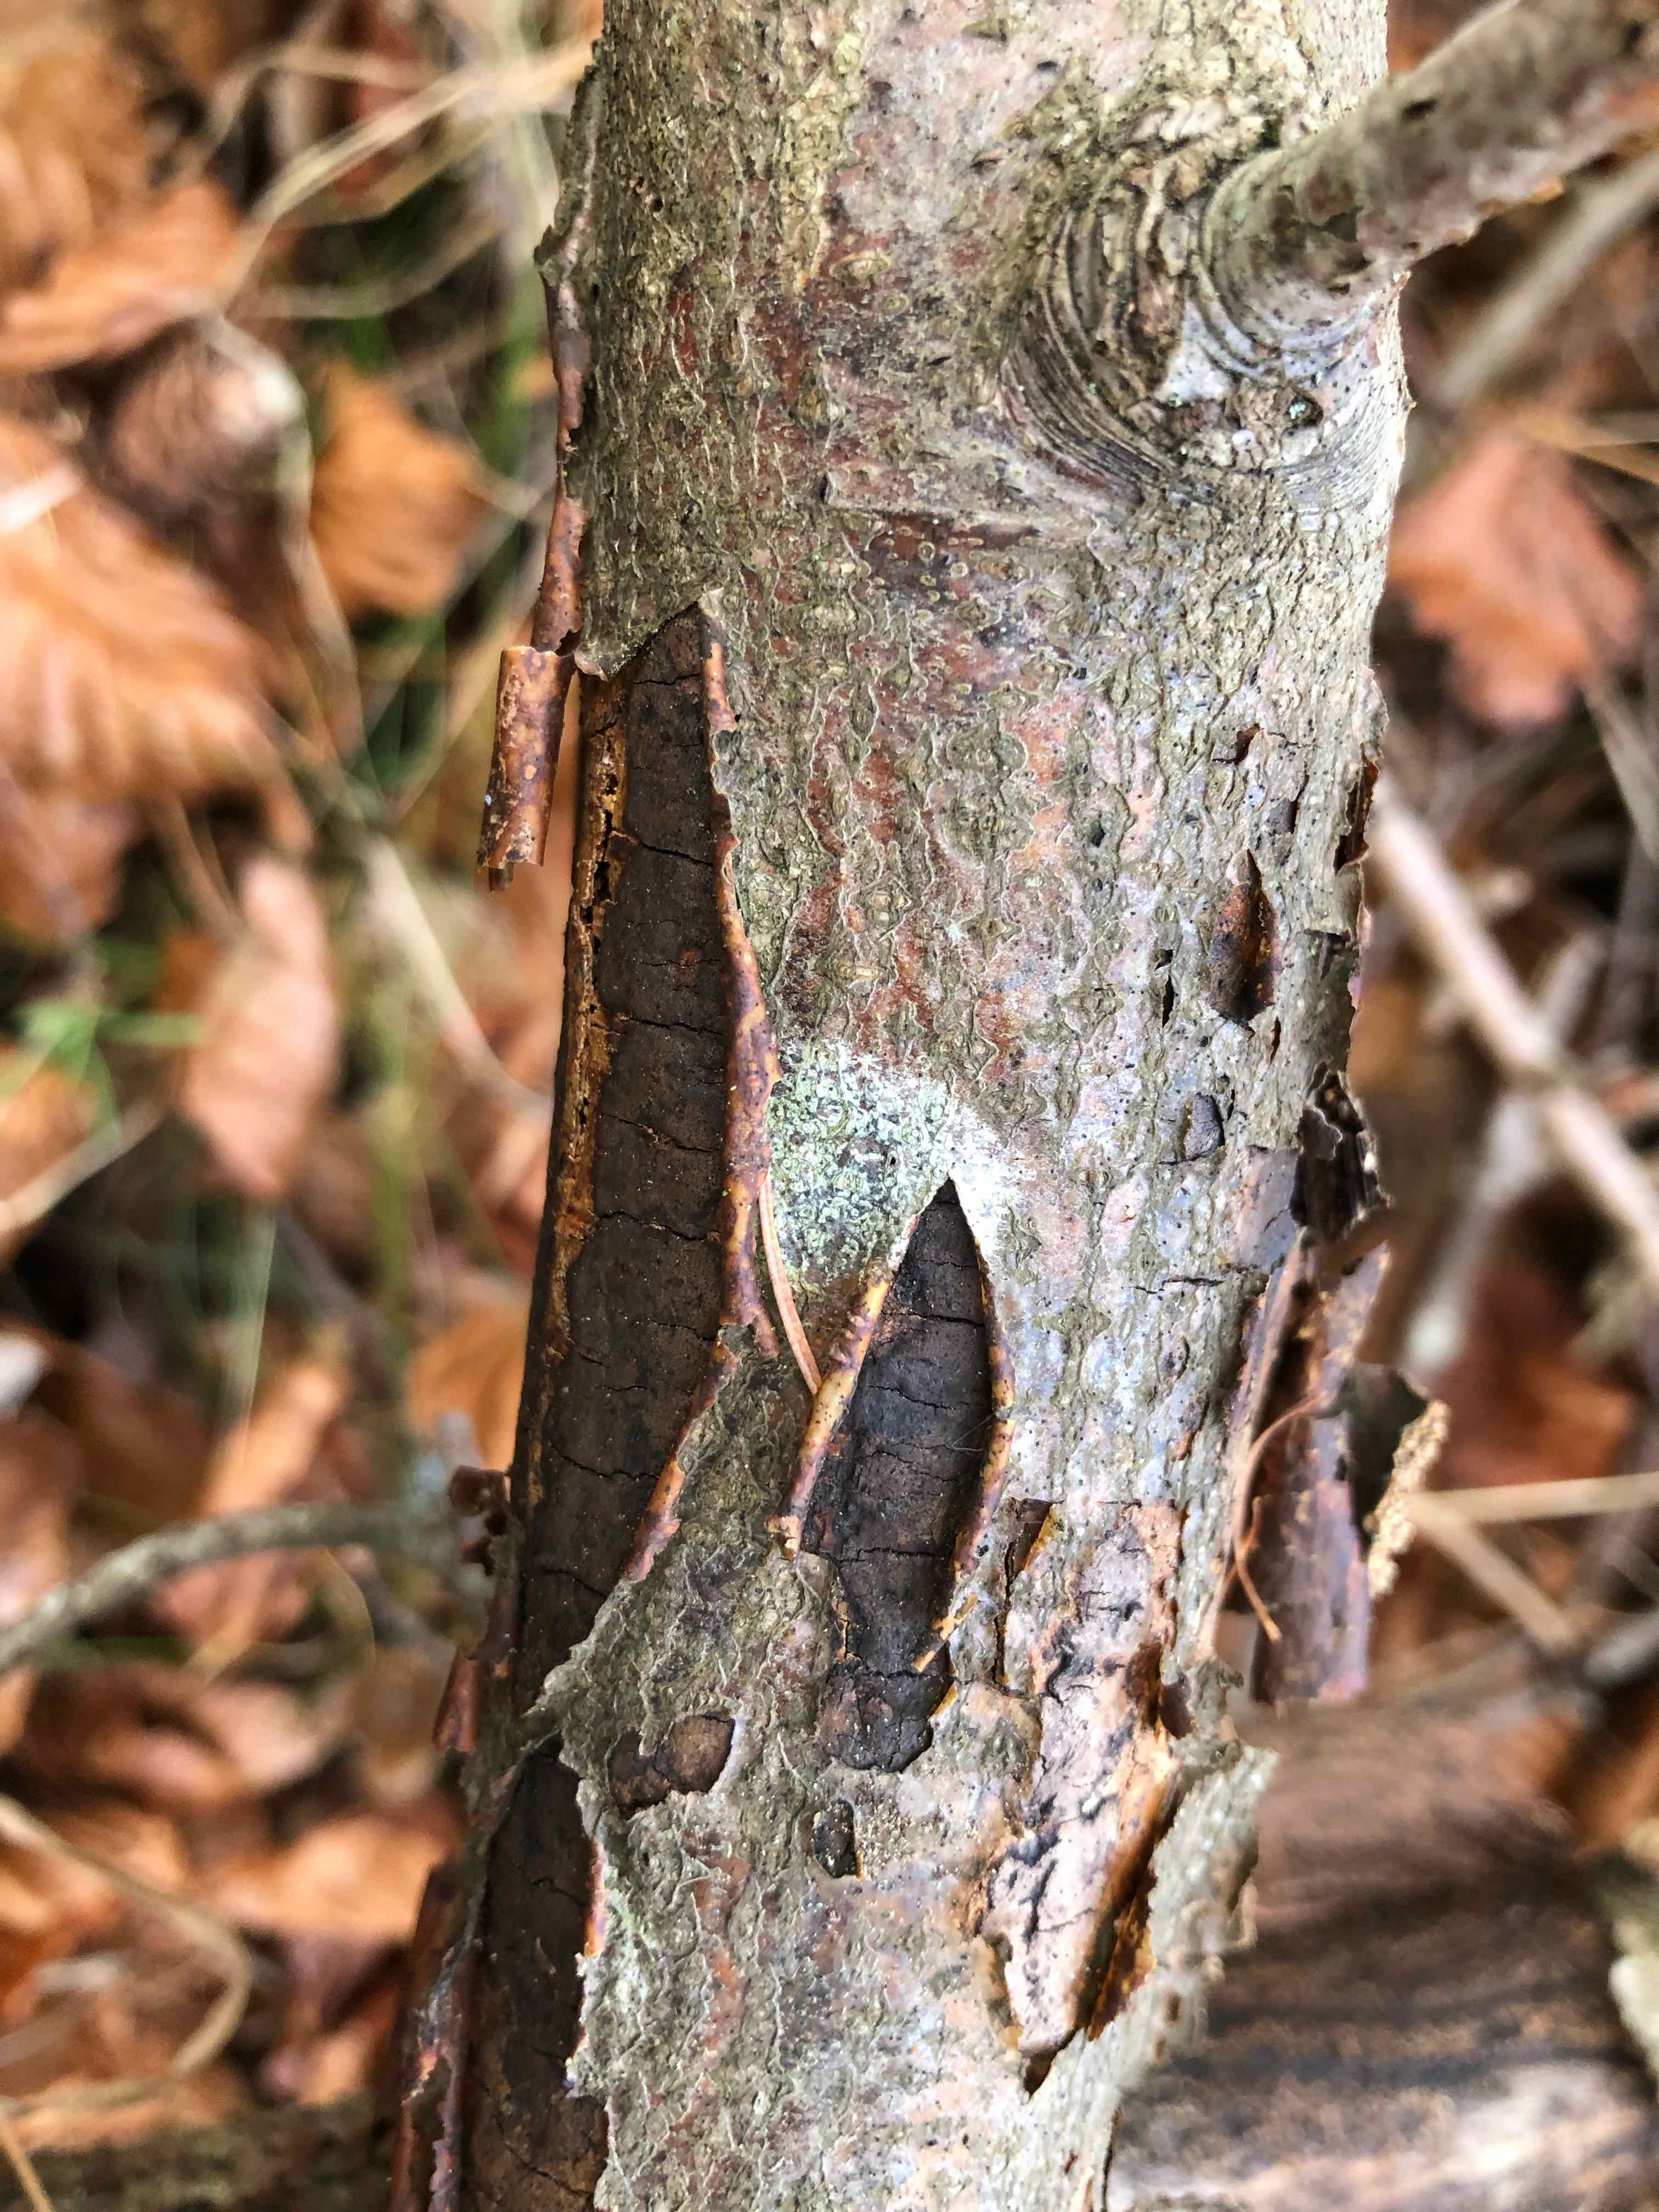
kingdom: Fungi
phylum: Ascomycota
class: Sordariomycetes
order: Xylariales
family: Diatrypaceae
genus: Diatrype
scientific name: Diatrype decorticata
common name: barksprænger-kulskorpe
